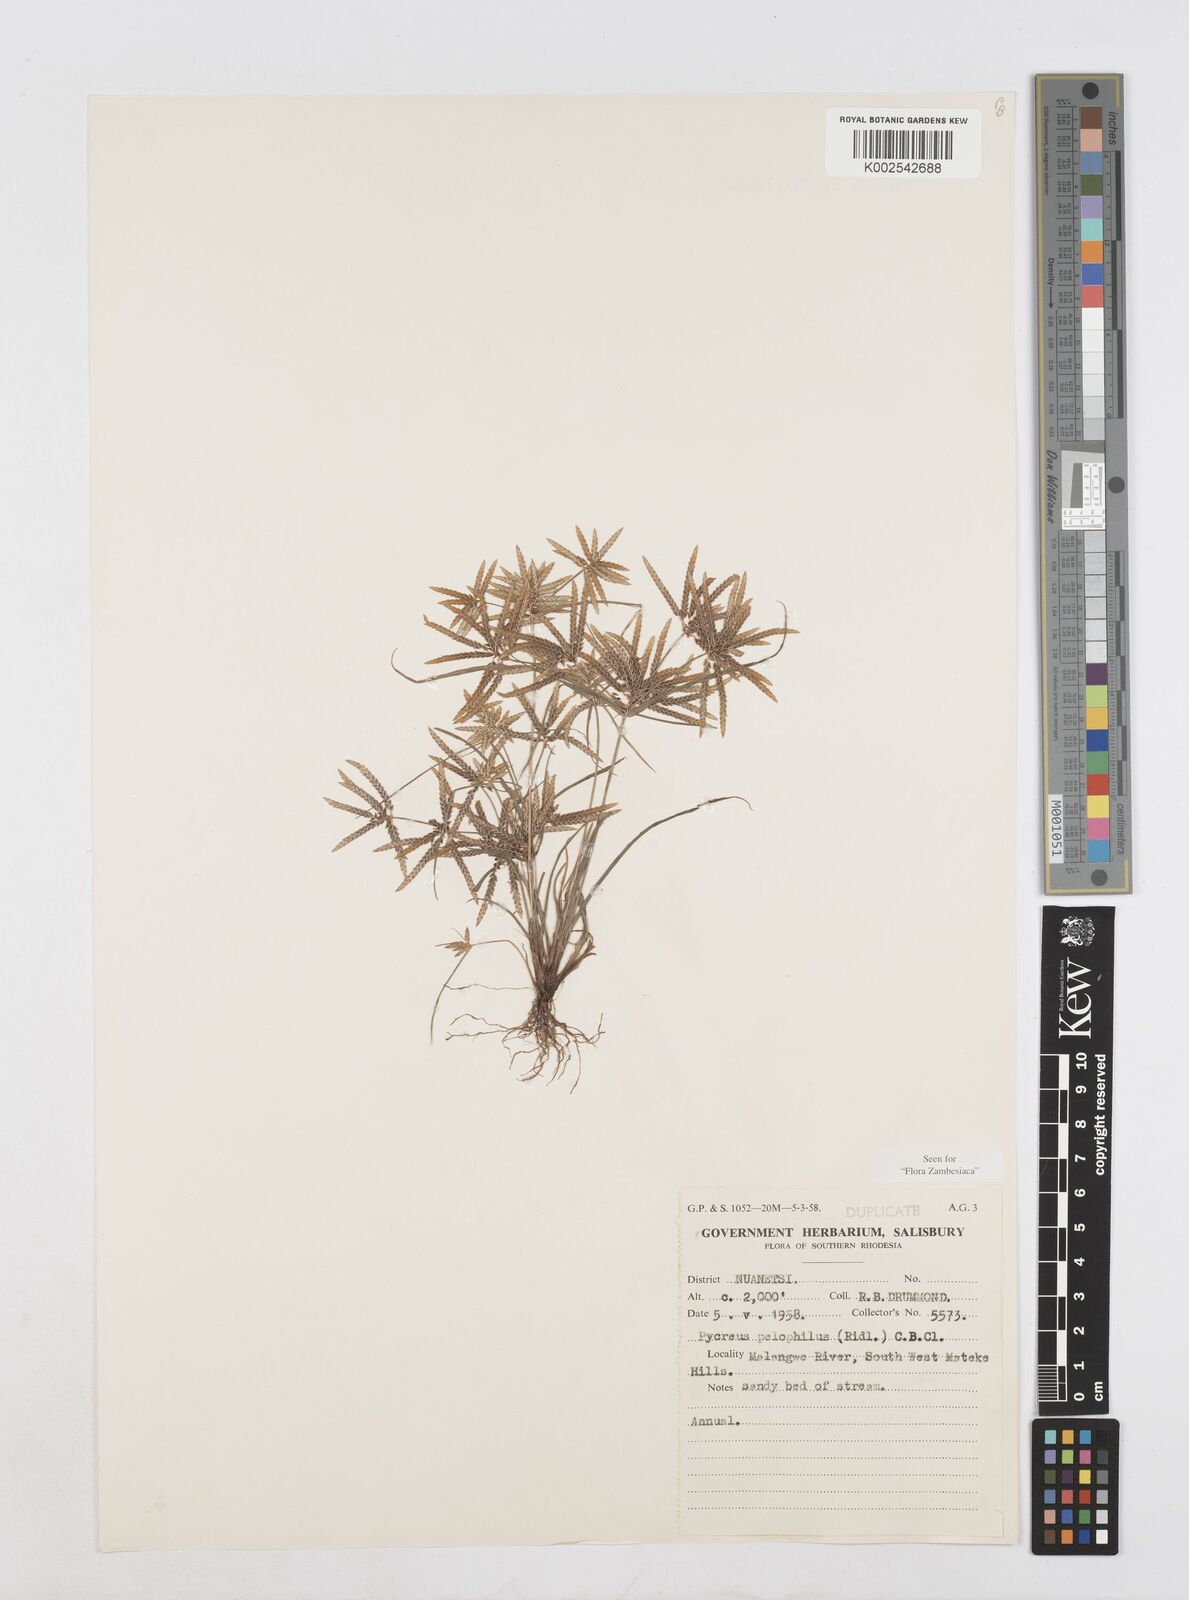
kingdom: Plantae
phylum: Tracheophyta
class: Liliopsida
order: Poales
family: Cyperaceae
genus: Cyperus
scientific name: Cyperus pelophilus
